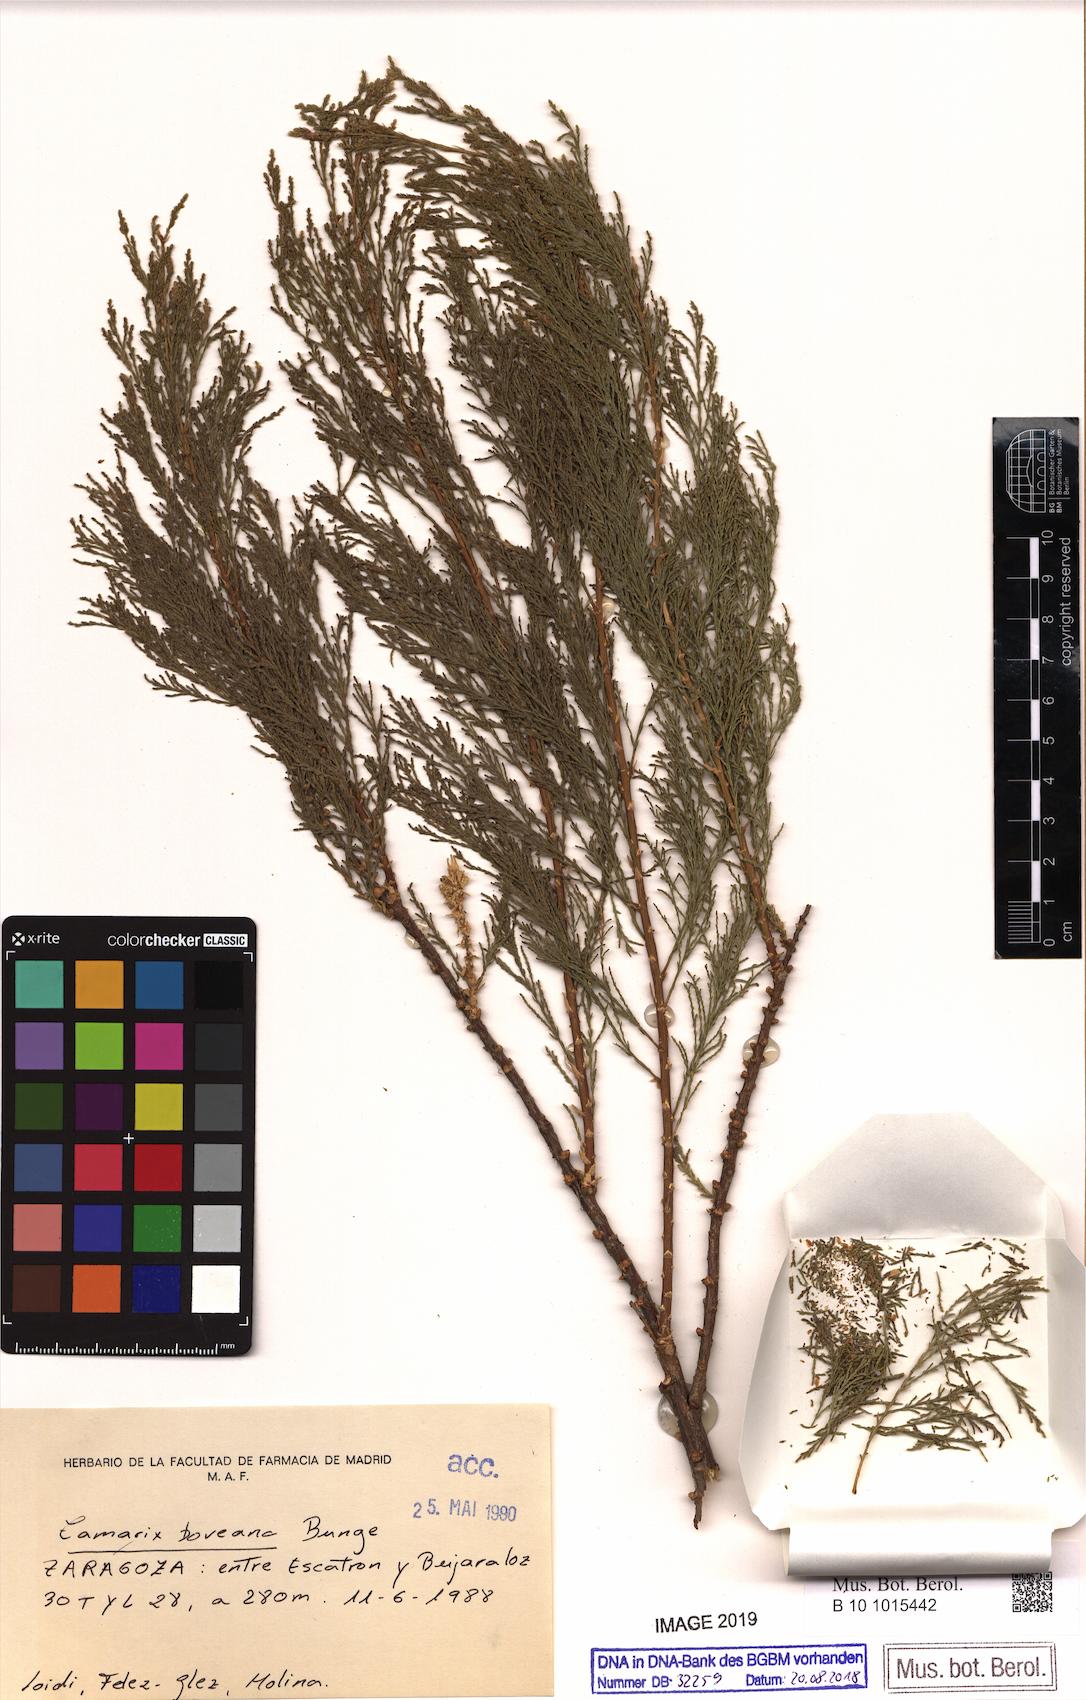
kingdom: Plantae
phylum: Tracheophyta
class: Magnoliopsida
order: Caryophyllales
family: Tamaricaceae
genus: Tamarix
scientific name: Tamarix boveana
